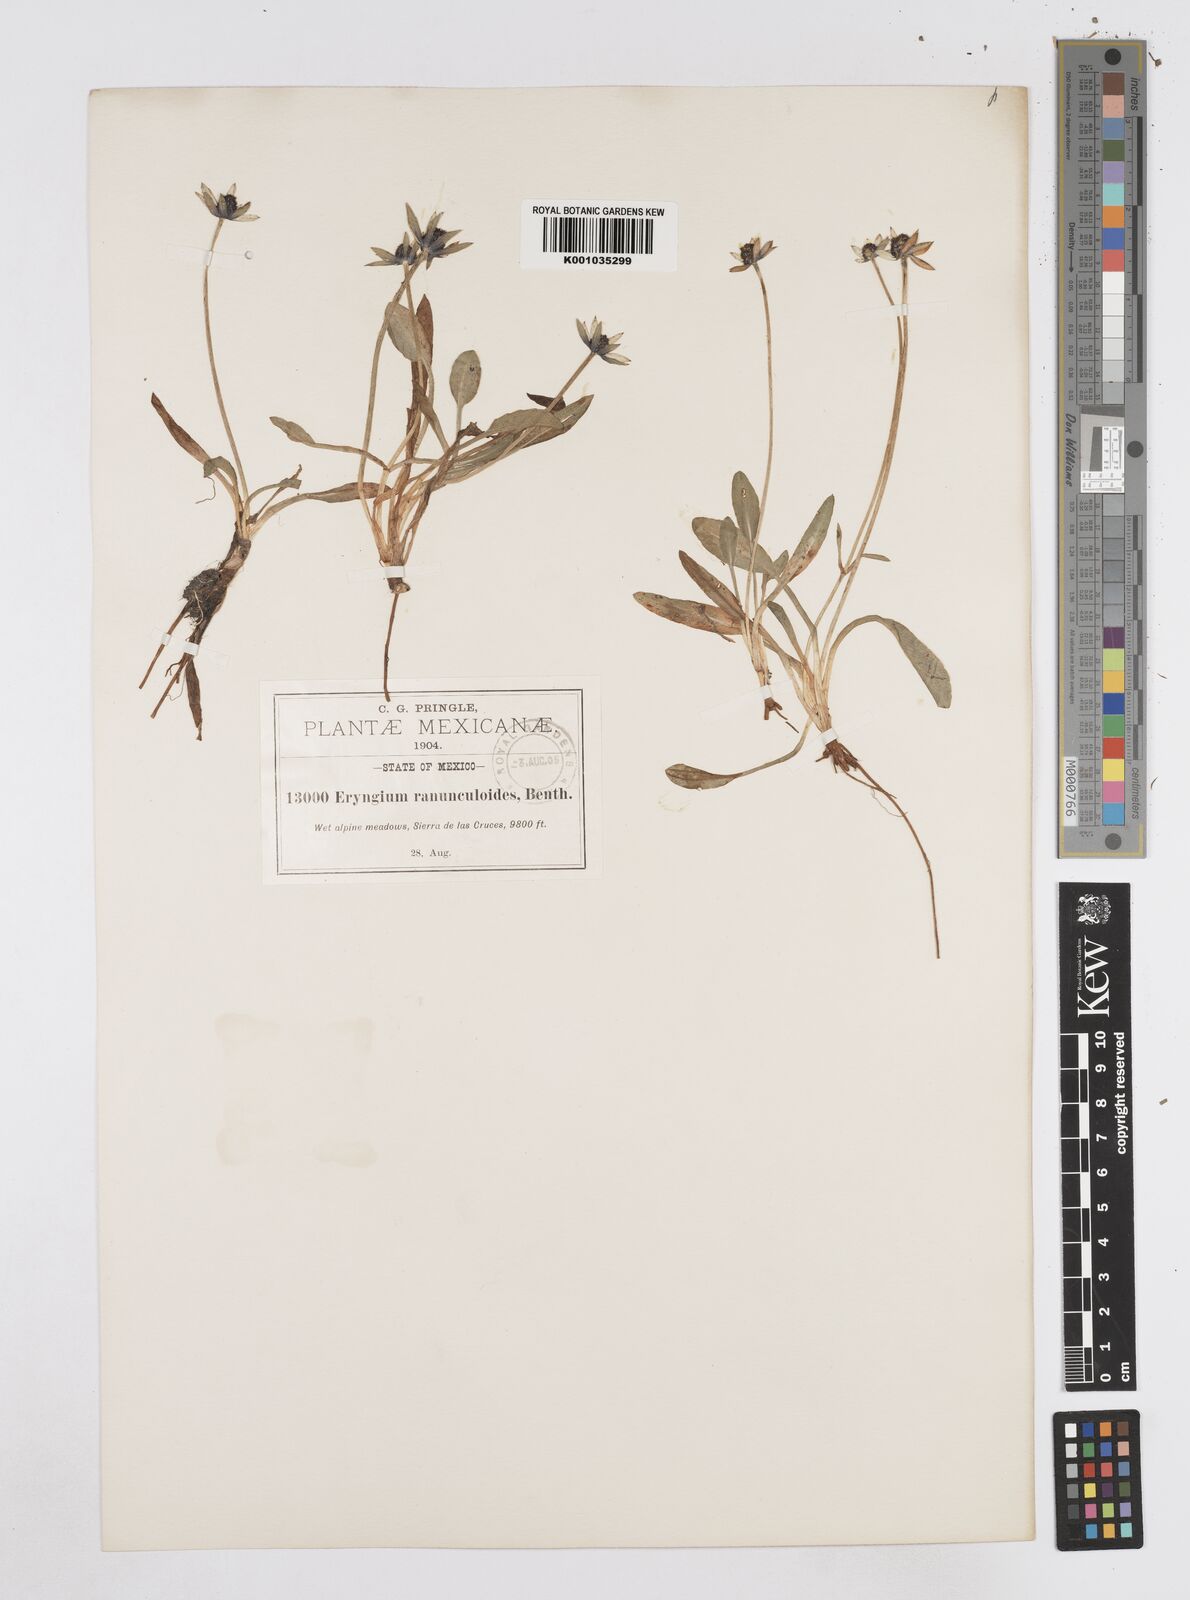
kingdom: Plantae
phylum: Tracheophyta
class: Magnoliopsida
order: Apiales
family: Apiaceae
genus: Eryngium
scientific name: Eryngium subacaule
